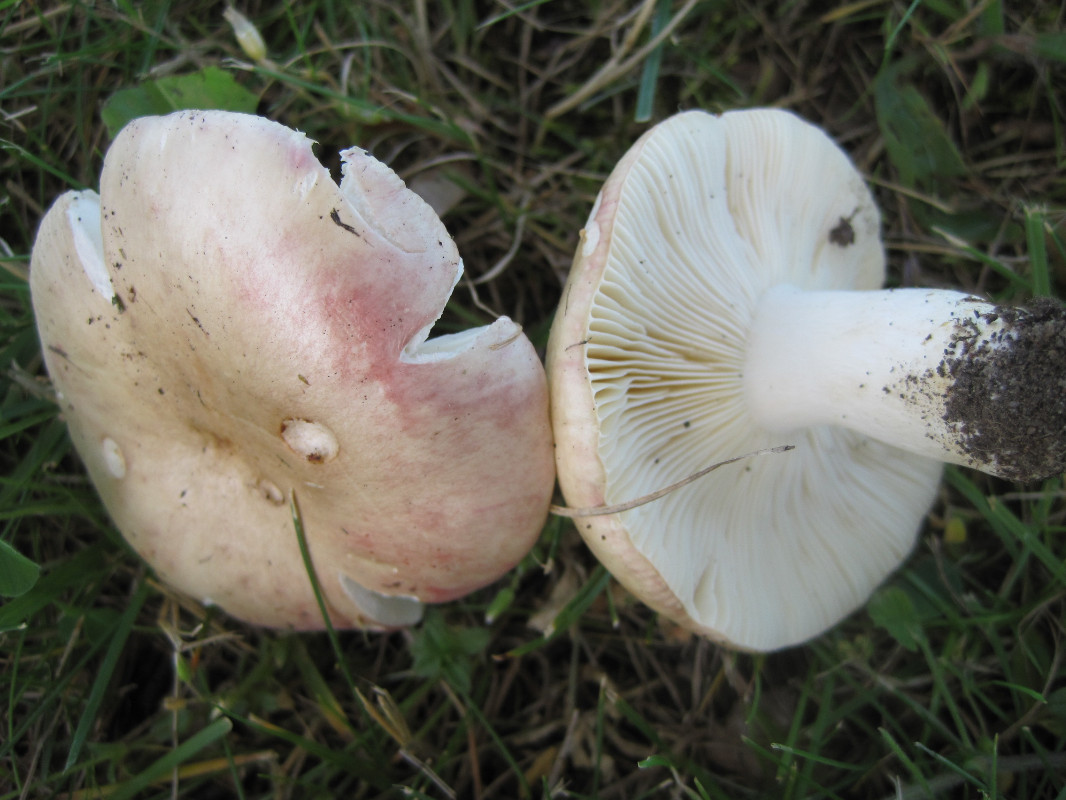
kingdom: Fungi
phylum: Basidiomycota
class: Agaricomycetes
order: Russulales
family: Russulaceae
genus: Russula
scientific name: Russula depallens
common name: falmende skørhat
